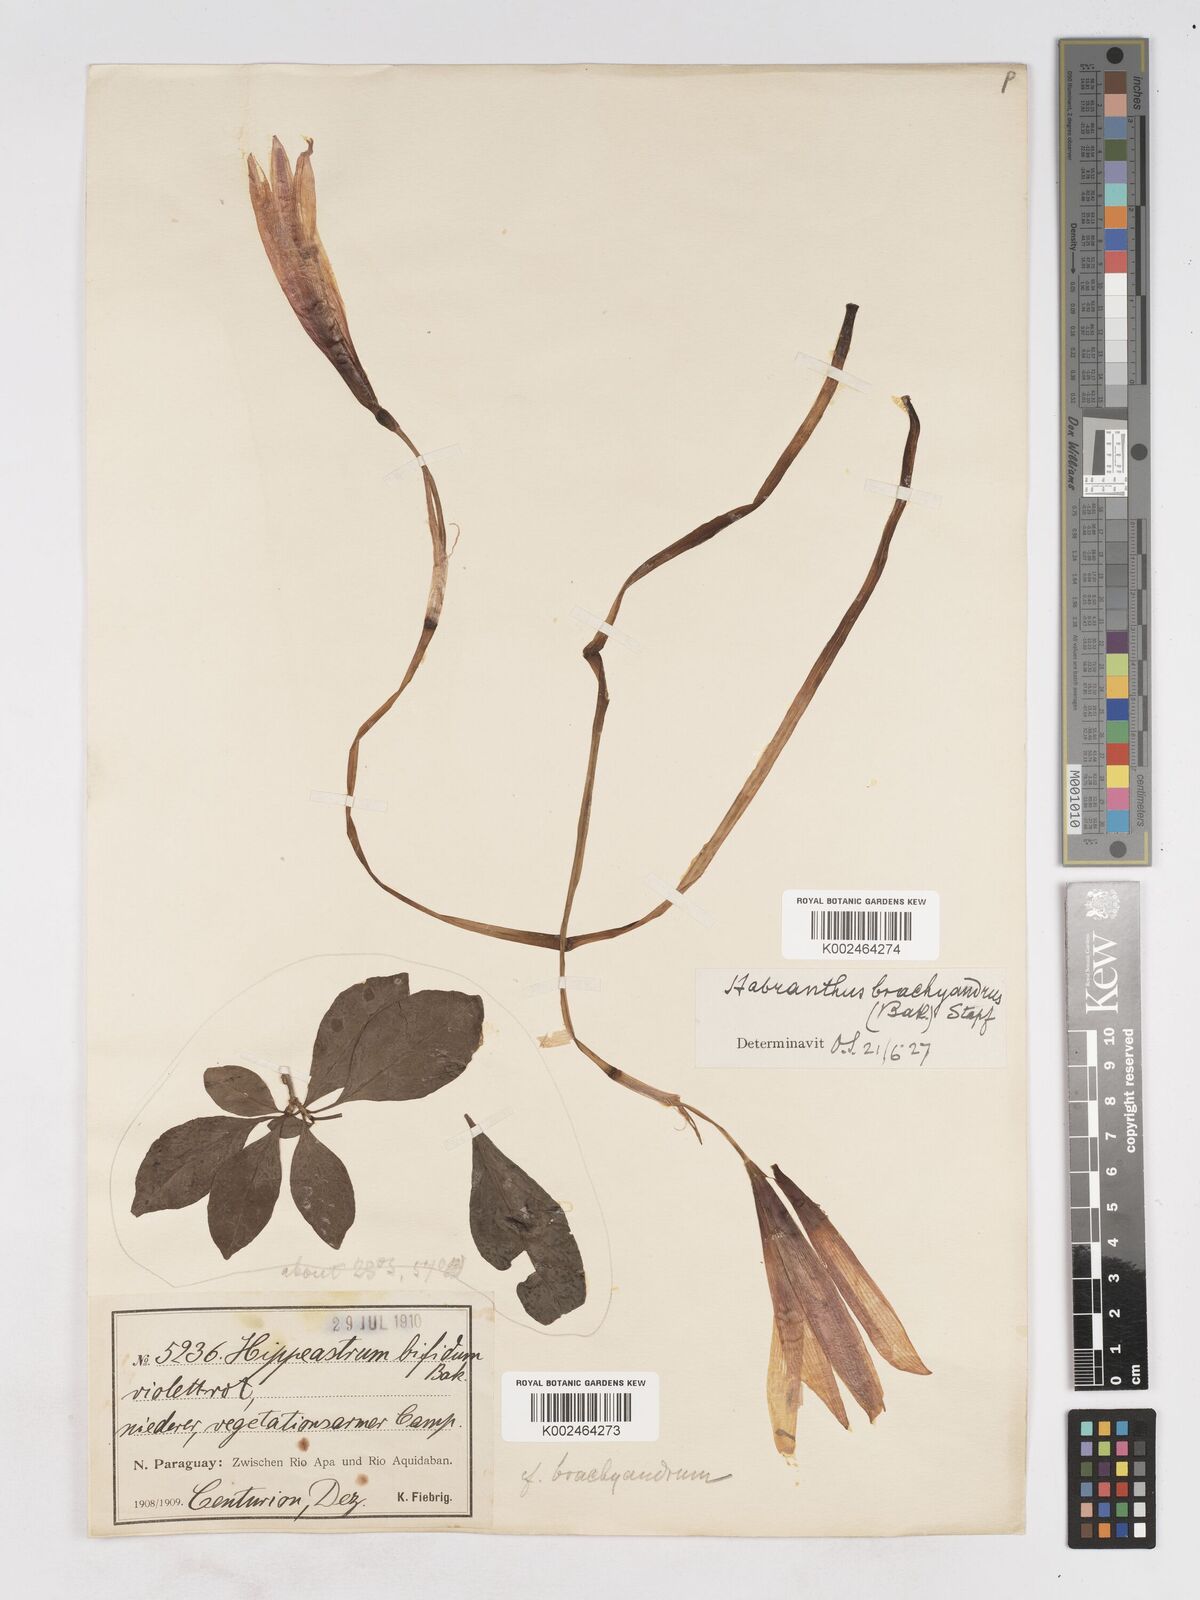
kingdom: Plantae
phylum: Tracheophyta
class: Liliopsida
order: Asparagales
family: Amaryllidaceae
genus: Zephyranthes
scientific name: Zephyranthes brachyandra
